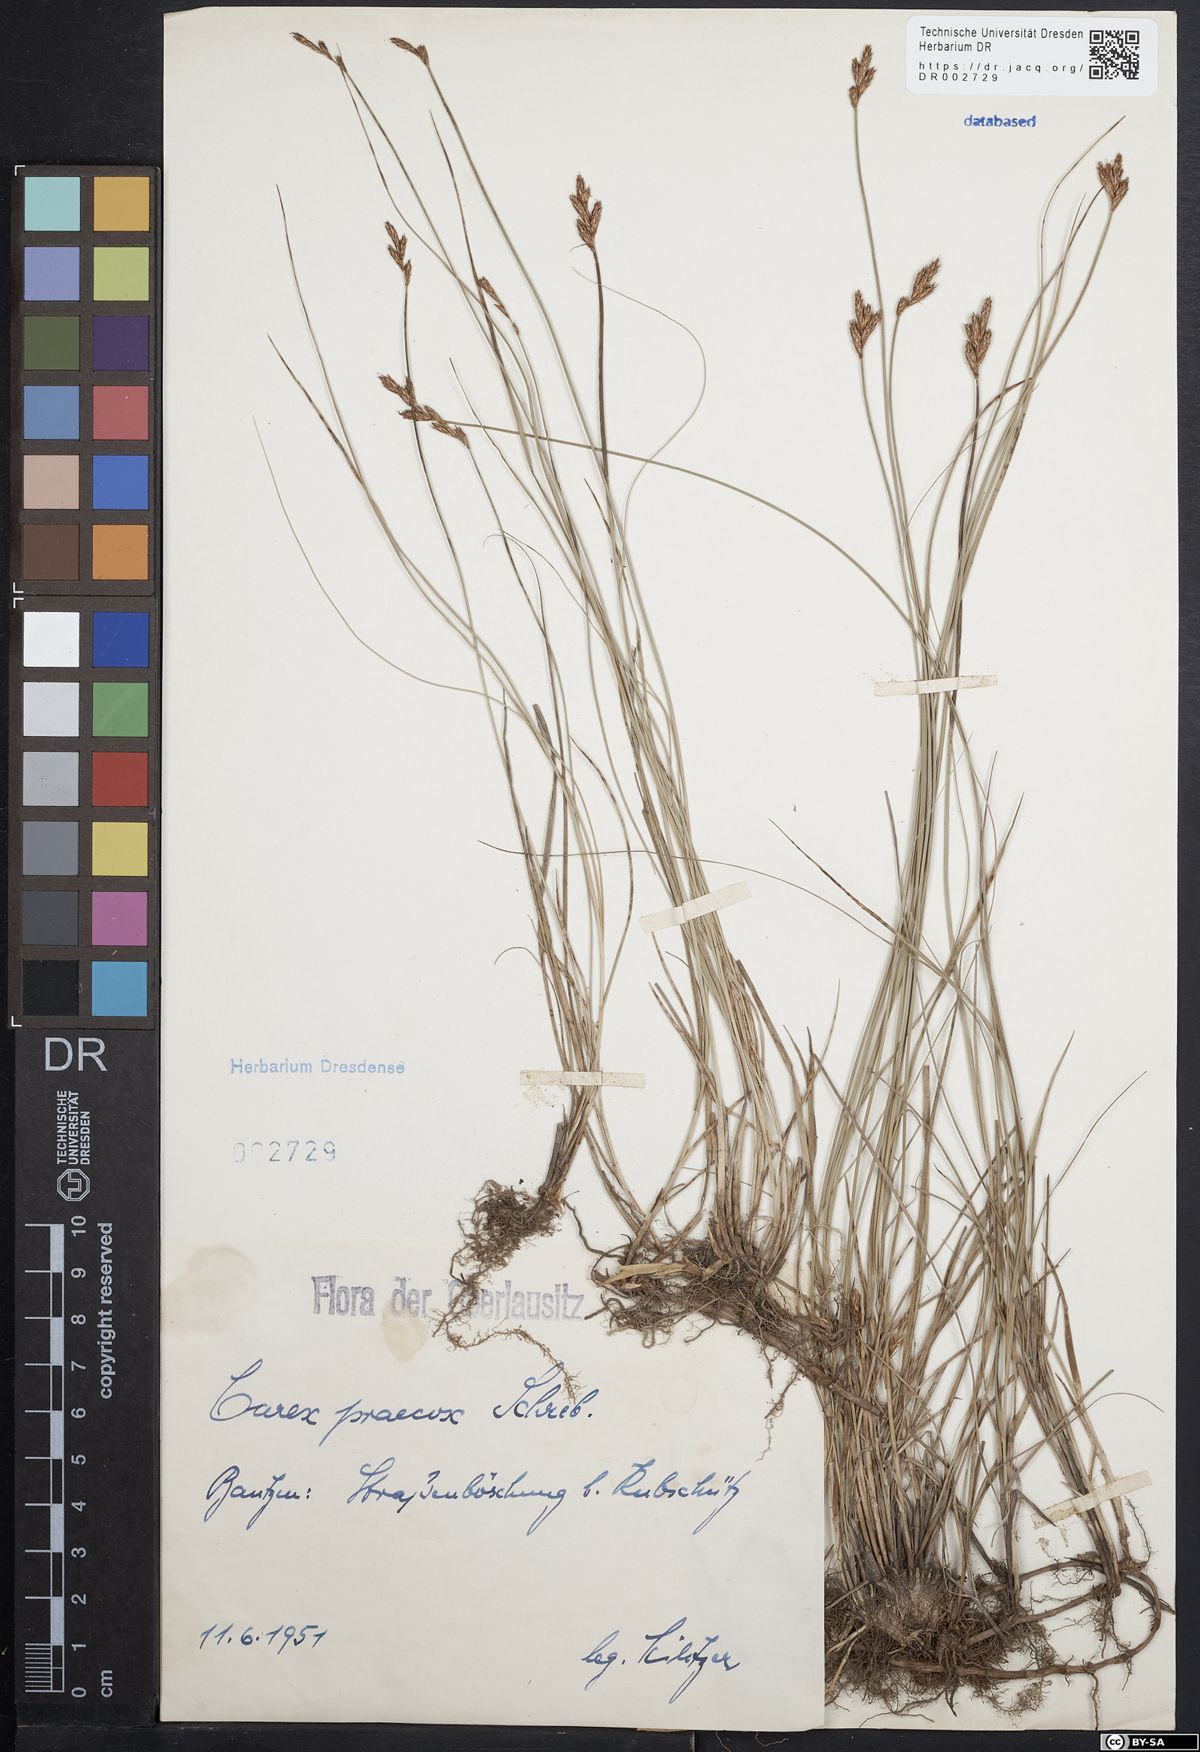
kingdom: Plantae
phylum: Tracheophyta
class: Liliopsida
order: Poales
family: Cyperaceae
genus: Carex
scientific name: Carex caryophyllea
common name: Spring sedge
